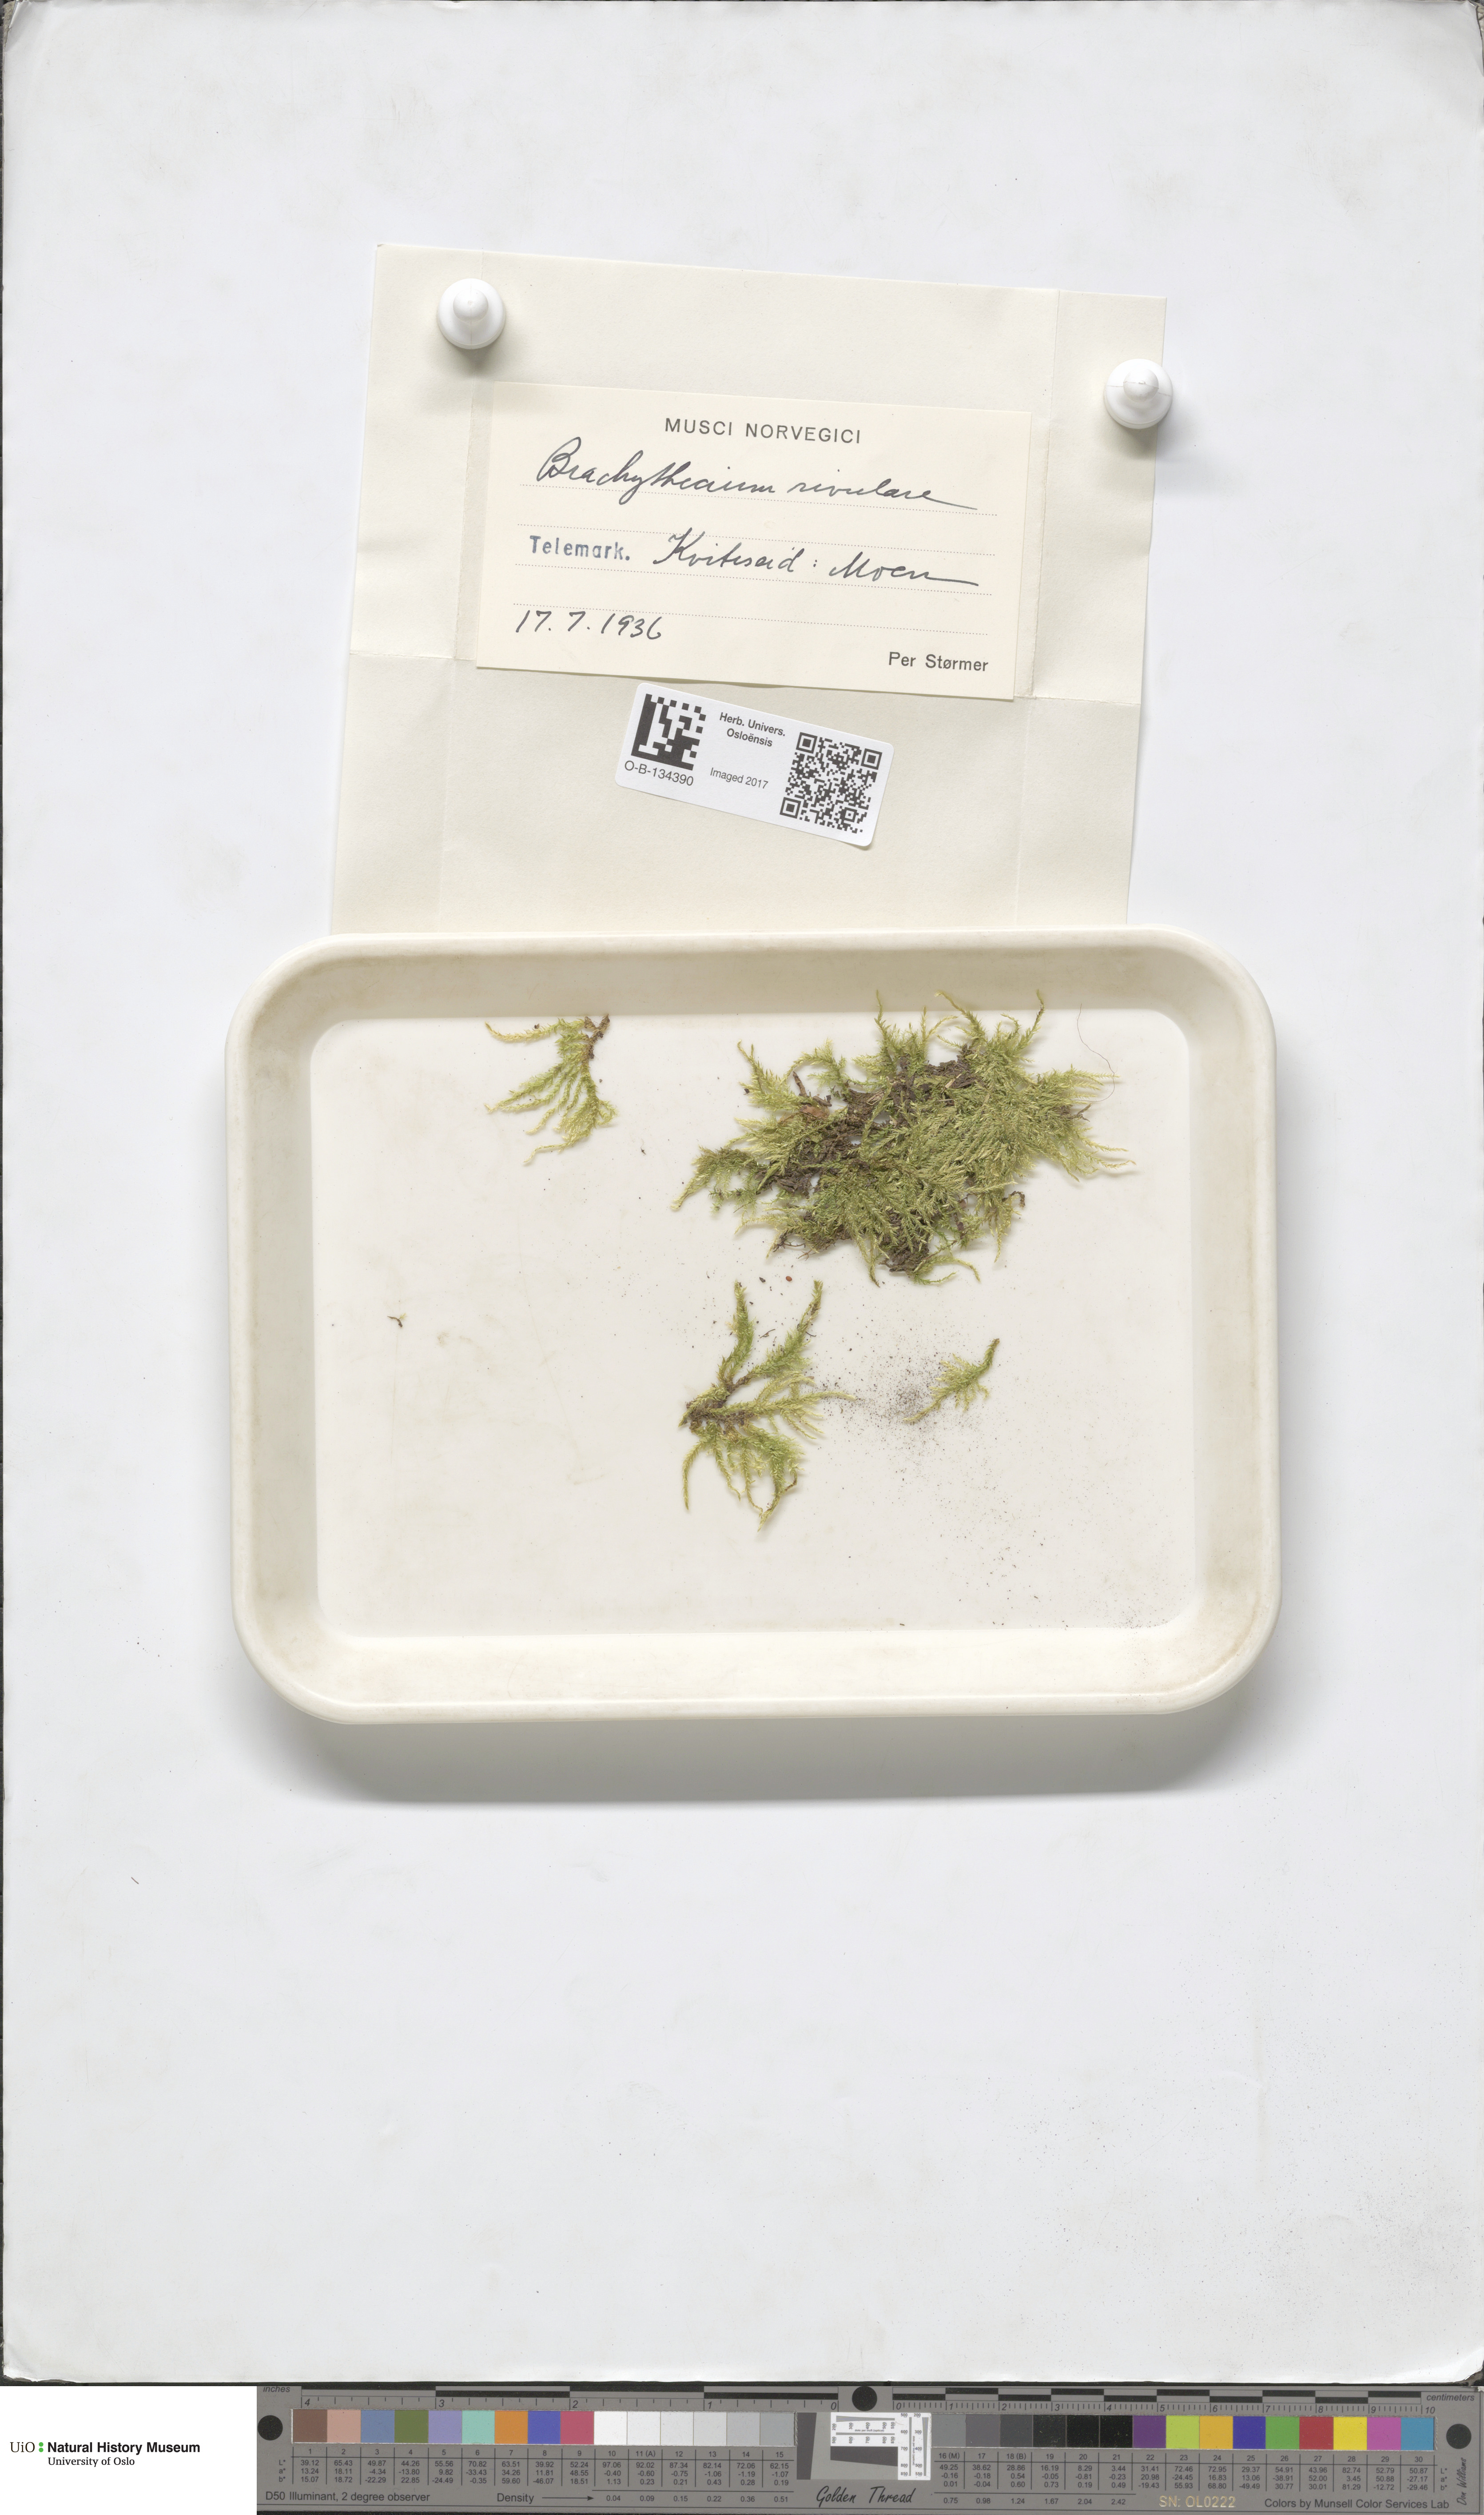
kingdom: Plantae
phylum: Bryophyta
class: Bryopsida
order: Hypnales
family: Brachytheciaceae
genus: Brachythecium
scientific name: Brachythecium rivulare
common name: River ragged moss
